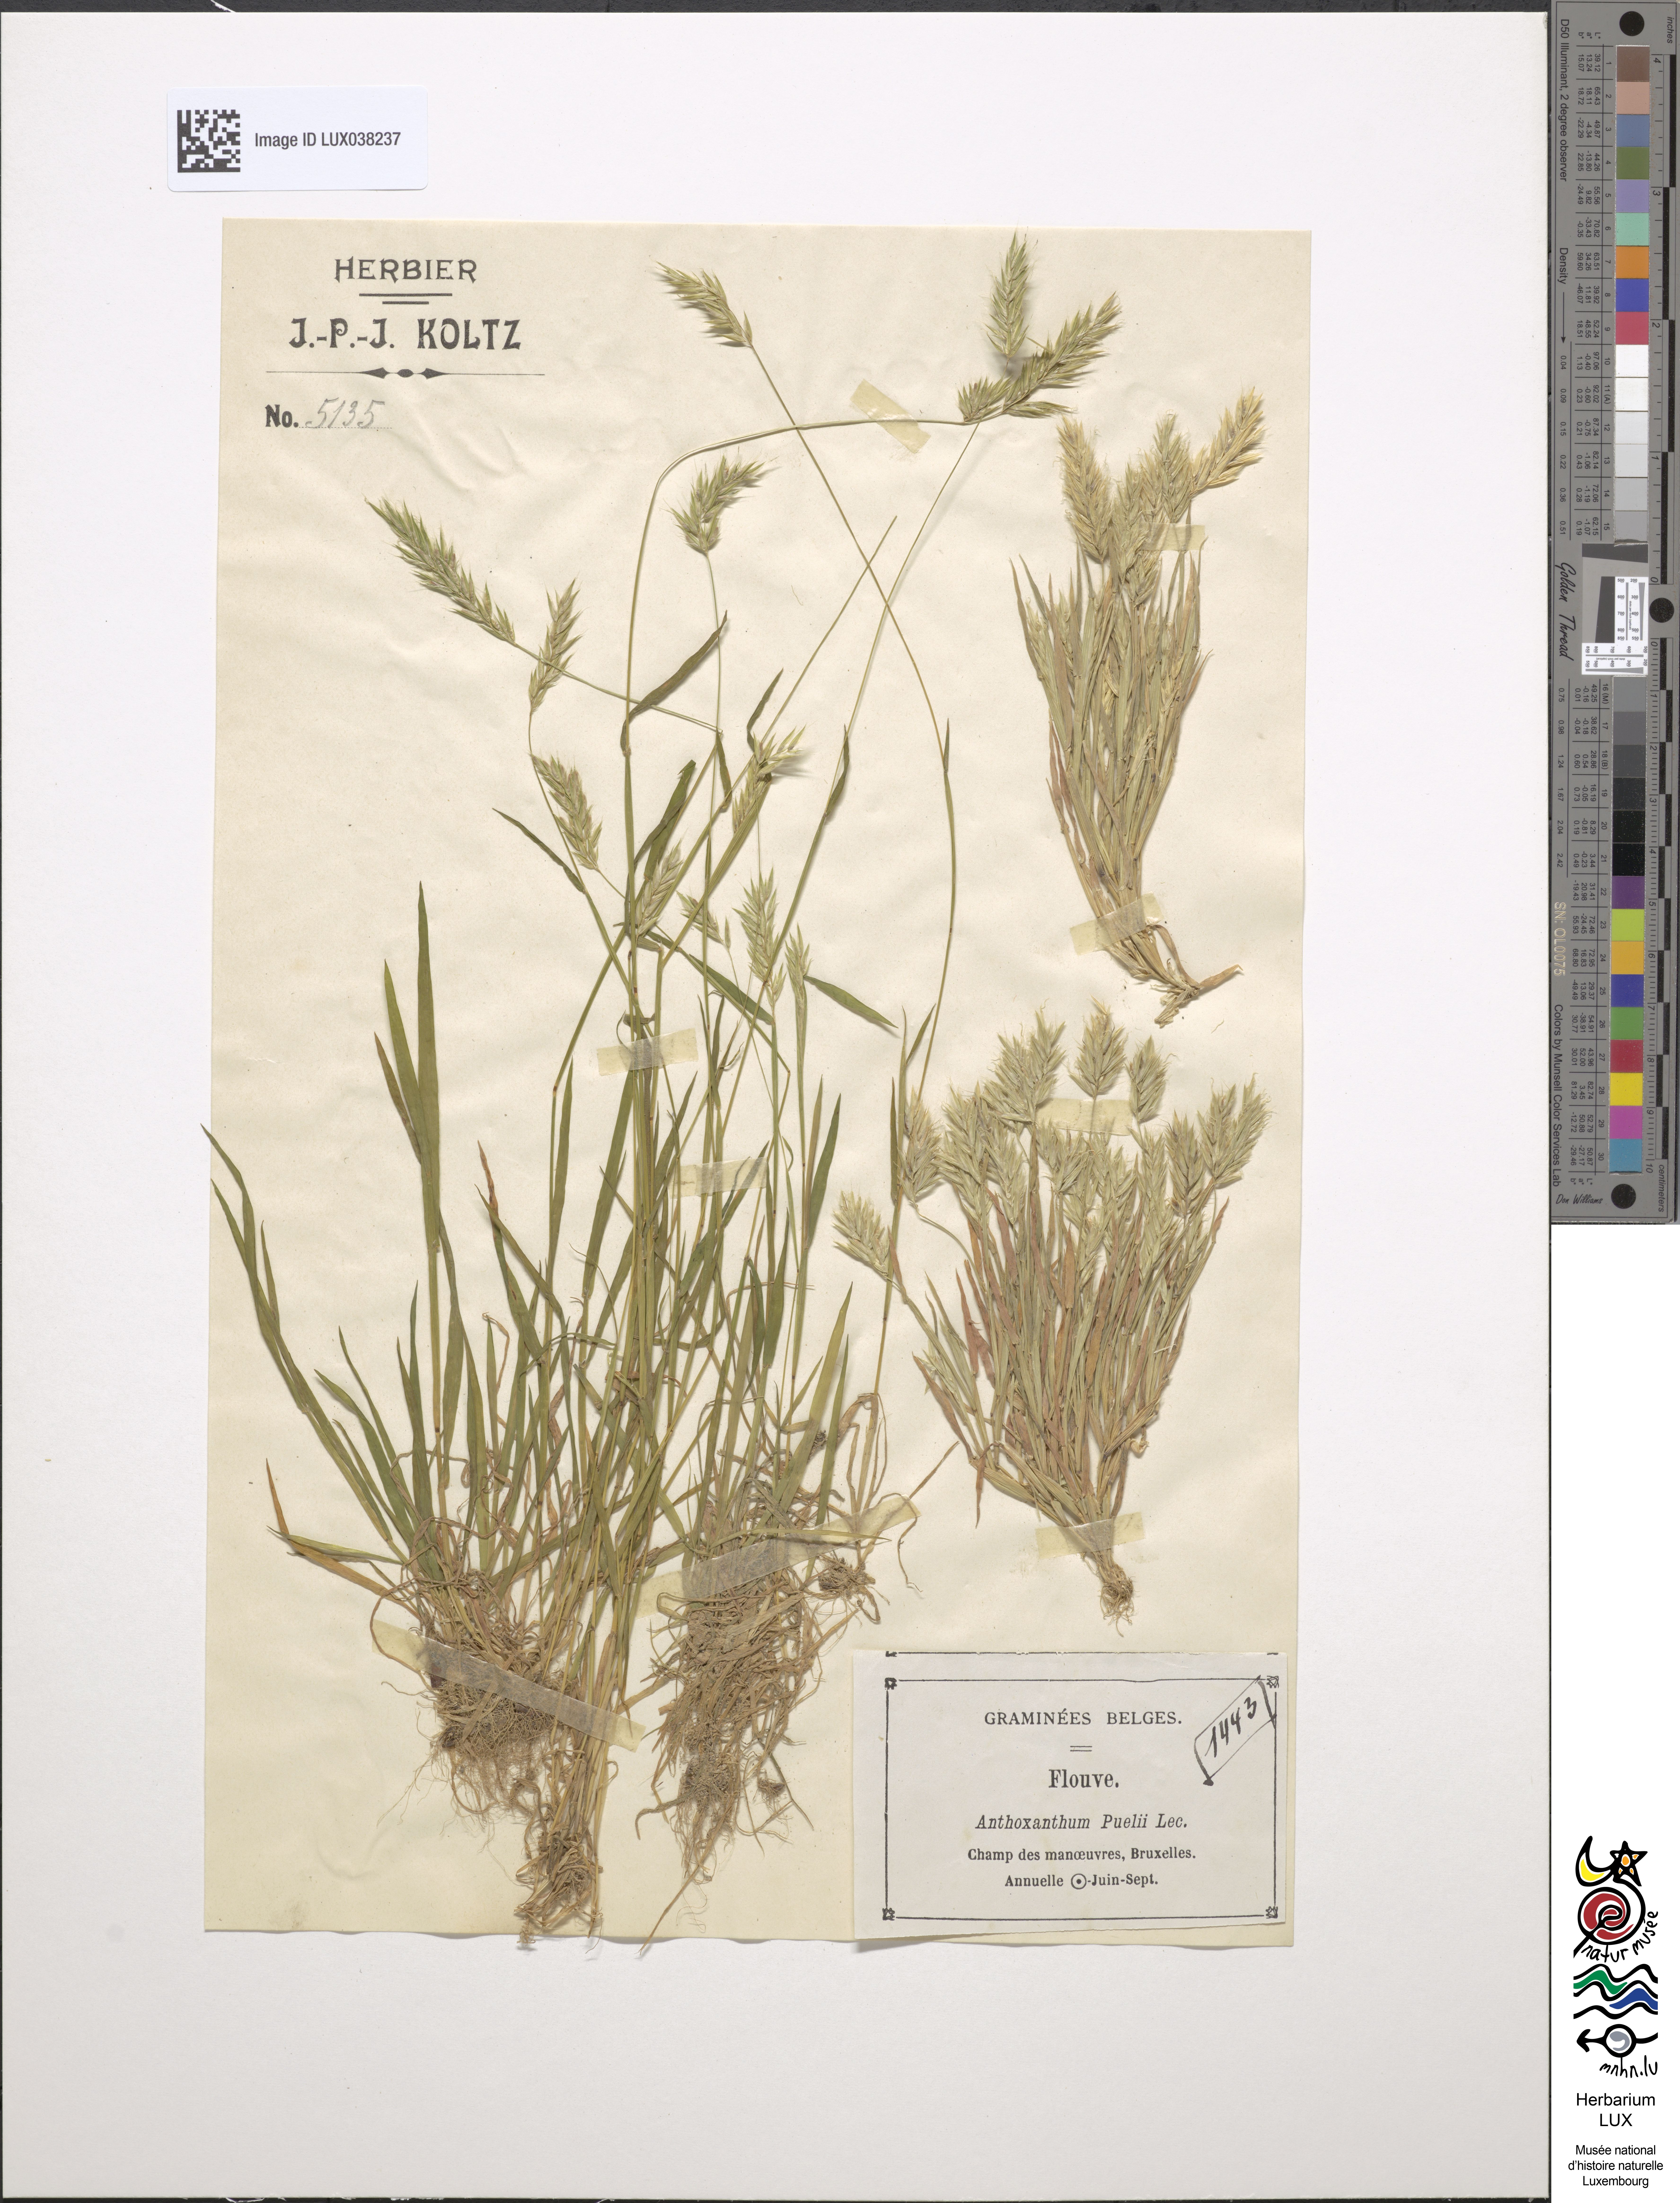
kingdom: Plantae
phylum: Tracheophyta
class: Liliopsida
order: Poales
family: Poaceae
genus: Anthoxanthum
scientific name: Anthoxanthum aristatum
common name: Annual vernal-grass
